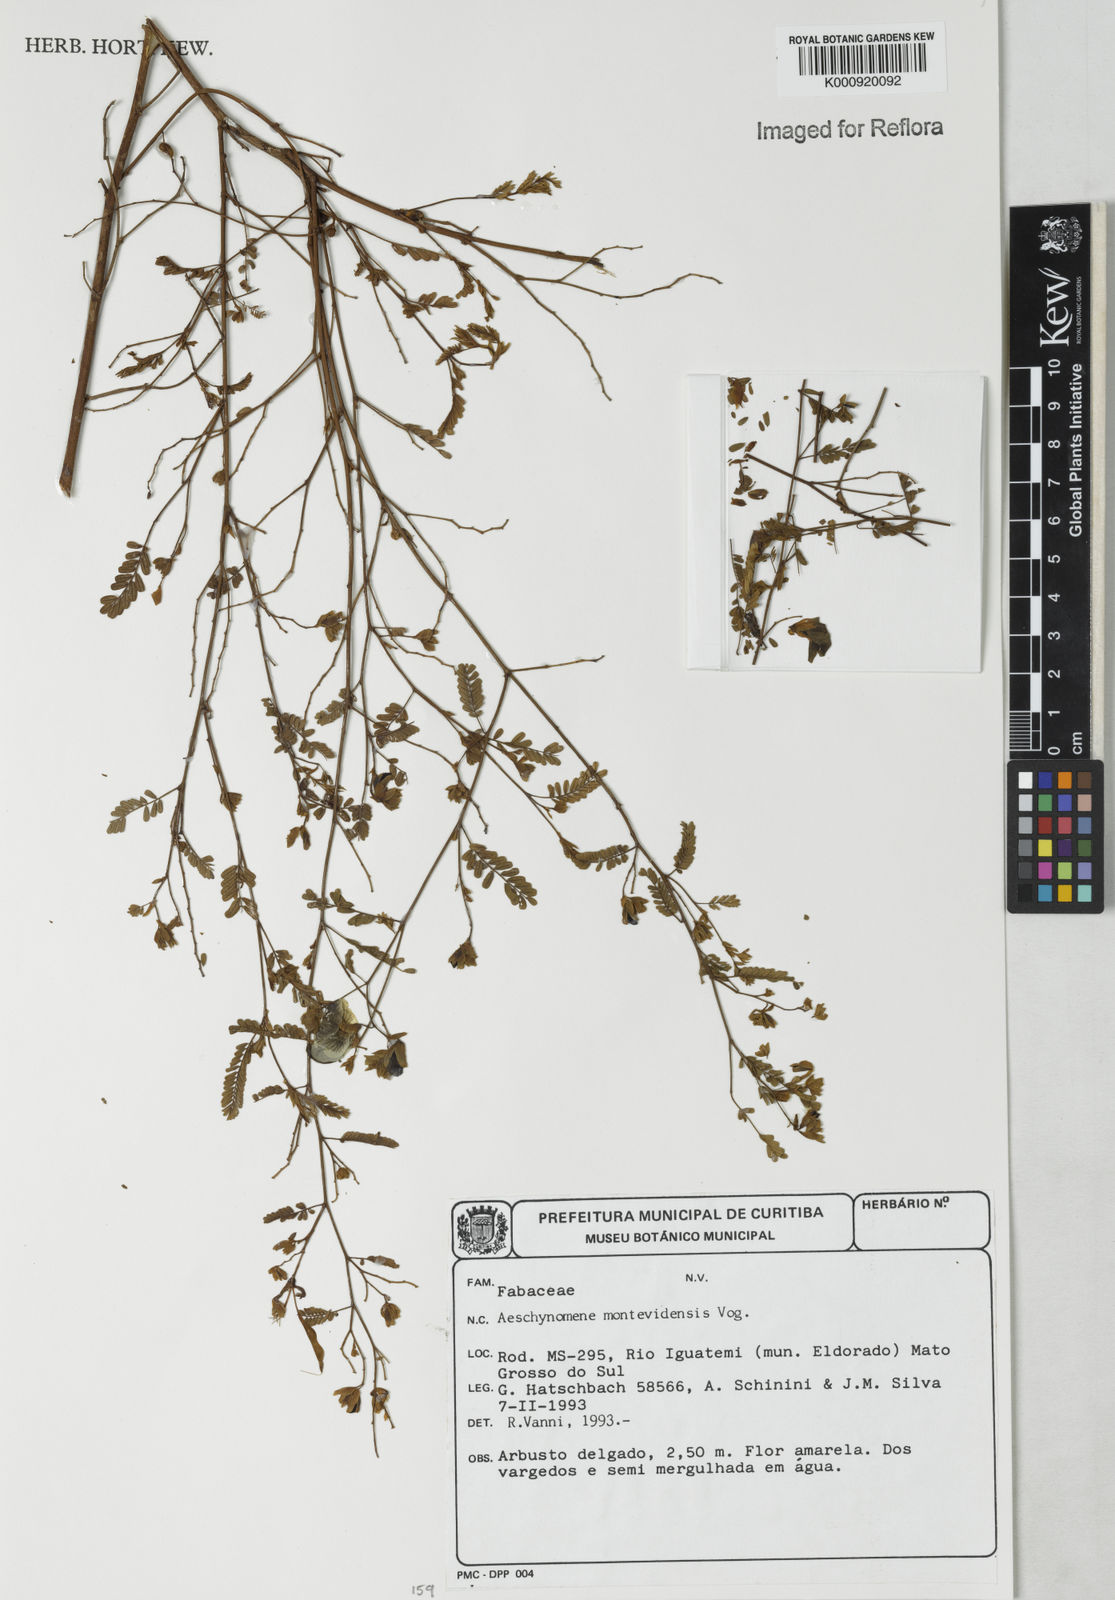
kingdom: Plantae
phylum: Tracheophyta
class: Magnoliopsida
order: Fabales
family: Fabaceae
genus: Aeschynomene
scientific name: Aeschynomene montevidensis
